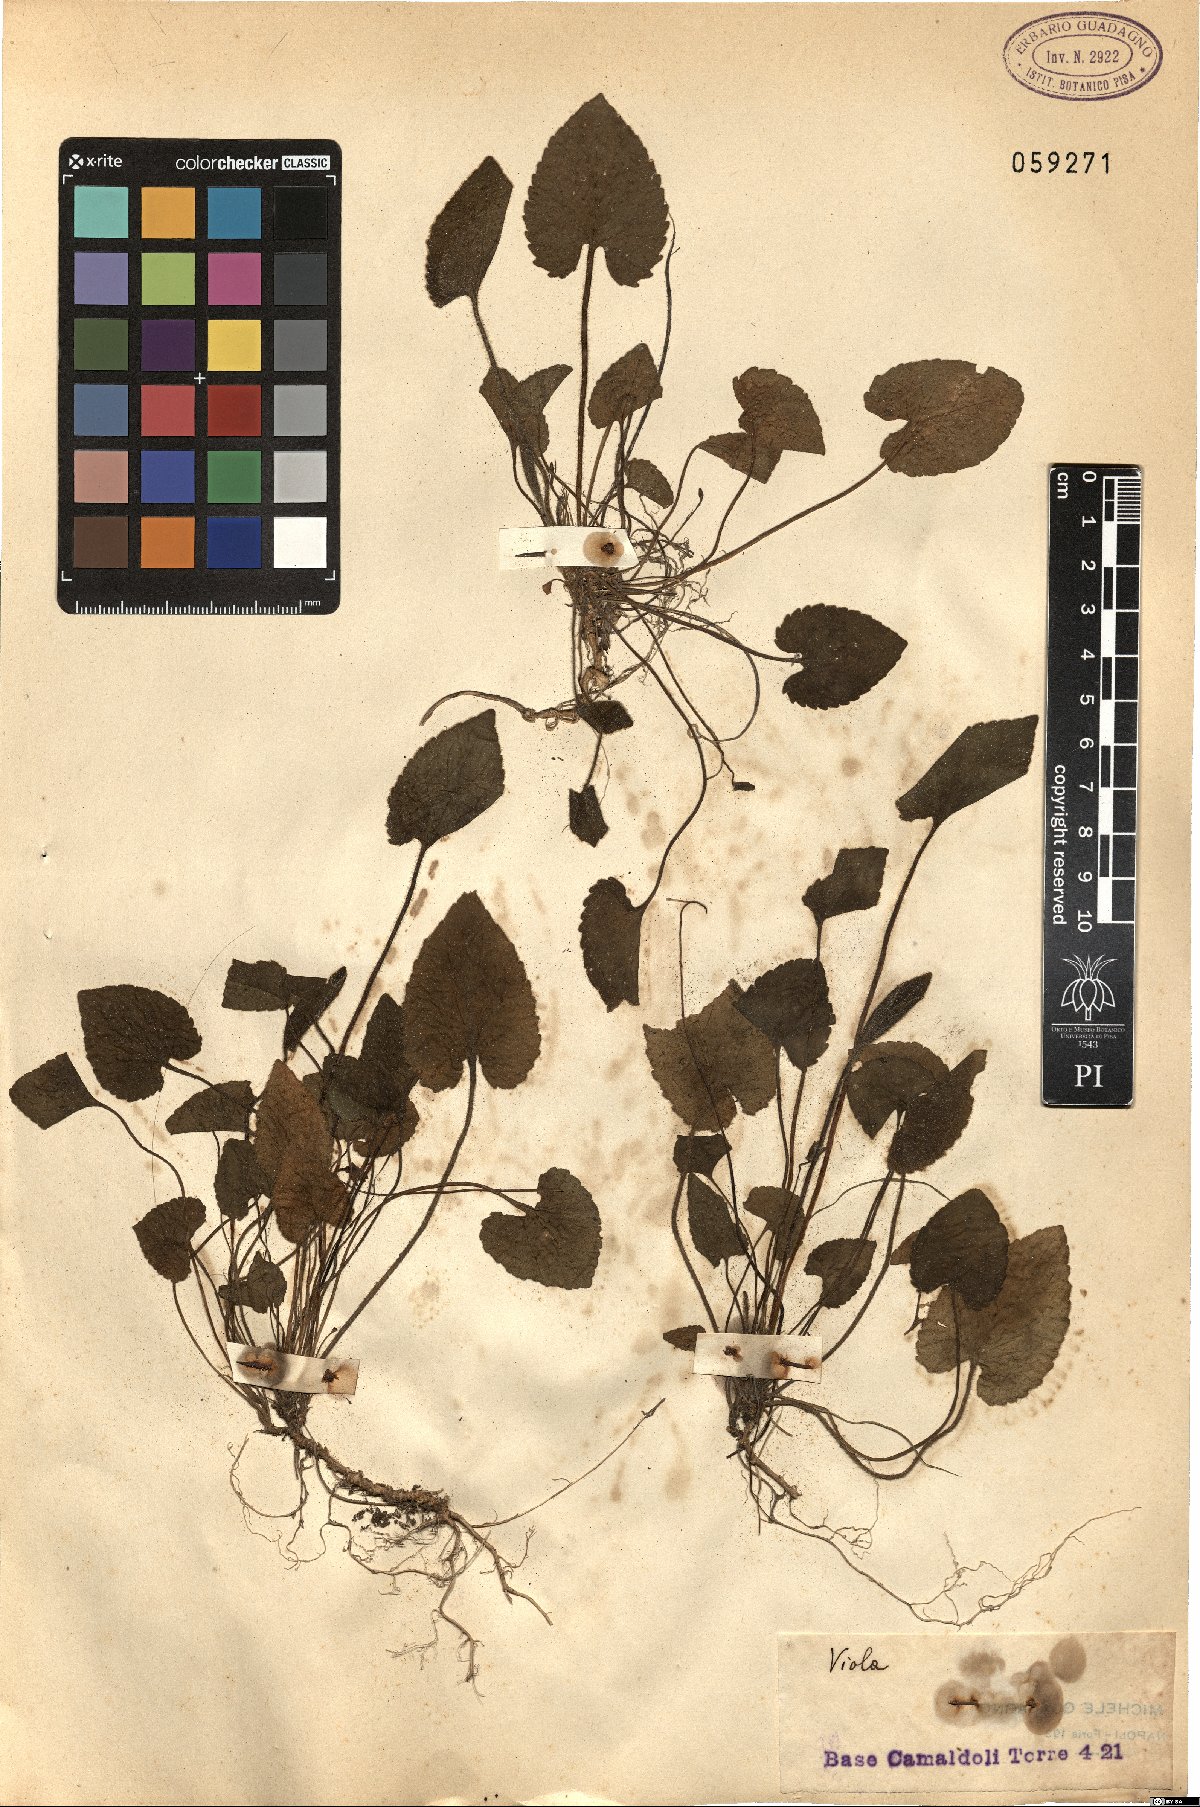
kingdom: Plantae
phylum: Tracheophyta
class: Magnoliopsida
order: Malpighiales
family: Violaceae
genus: Viola
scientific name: Viola
